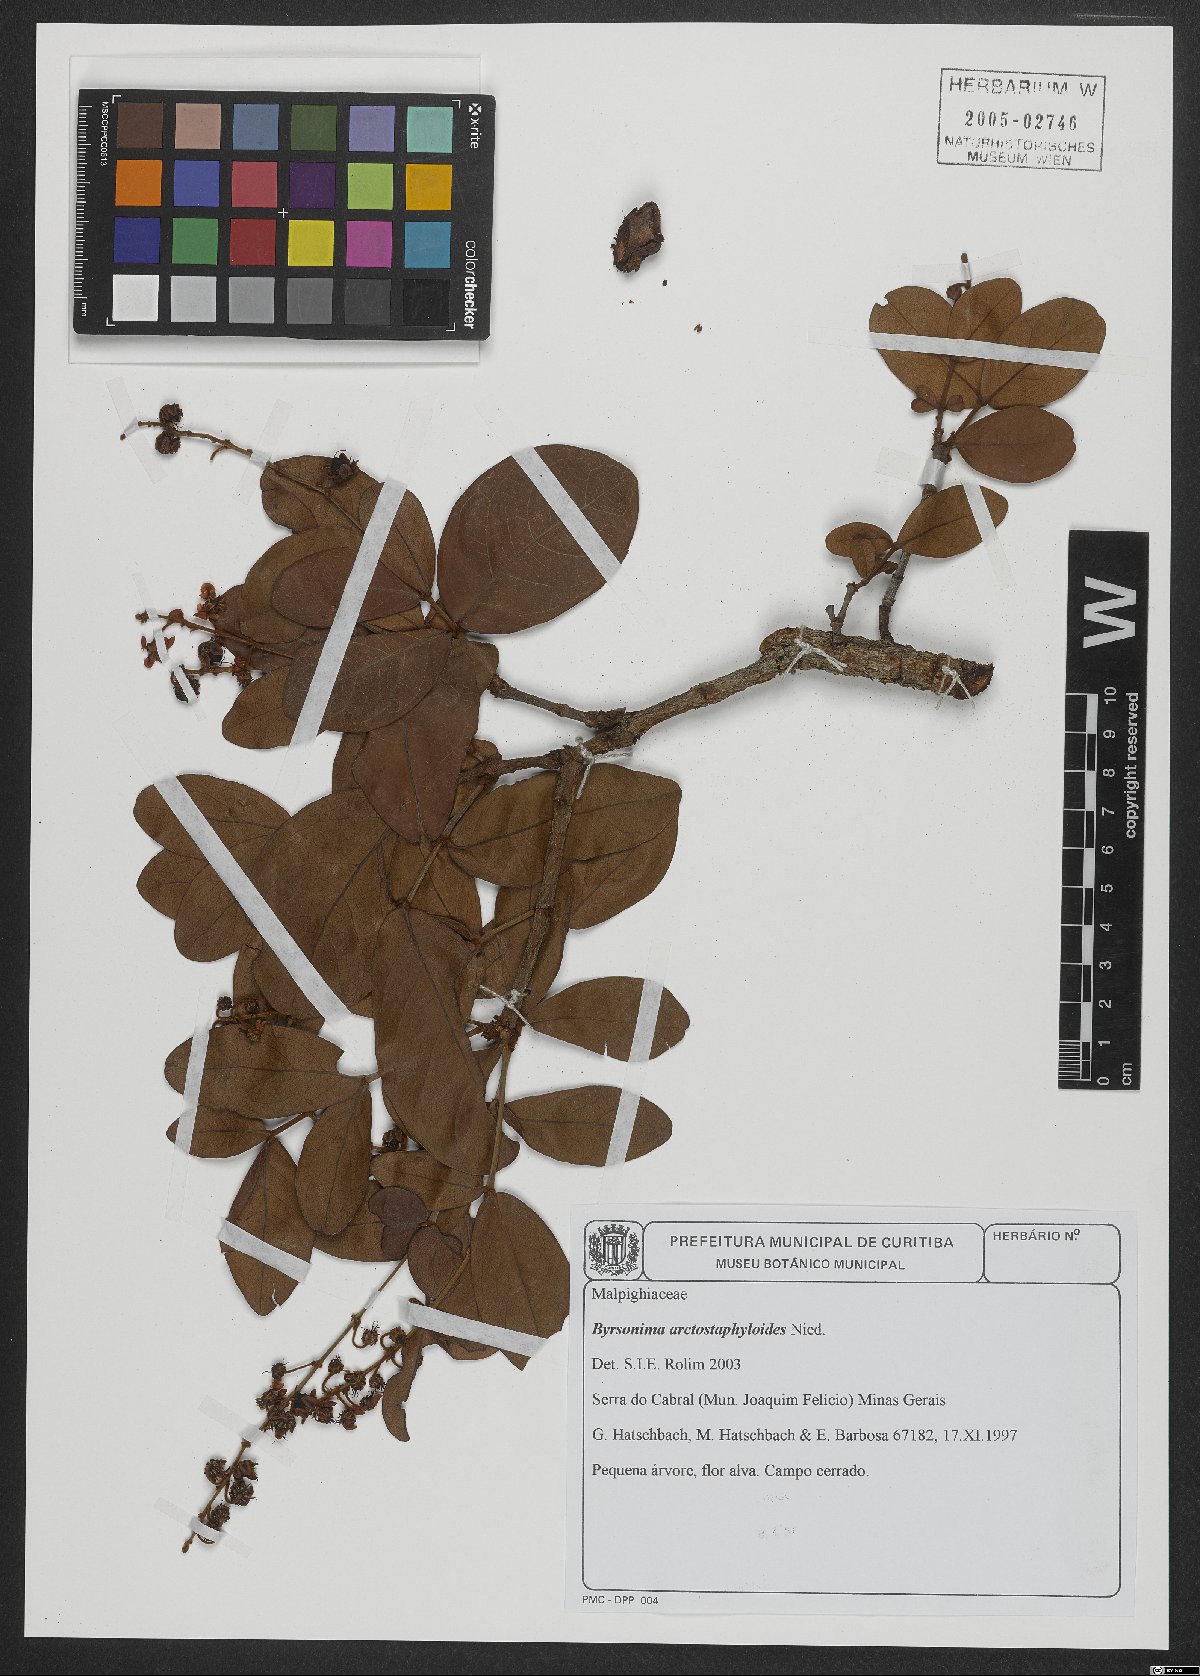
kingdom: Plantae
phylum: Tracheophyta
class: Magnoliopsida
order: Malpighiales
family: Malpighiaceae
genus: Byrsonima
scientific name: Byrsonima arctostaphyloides
